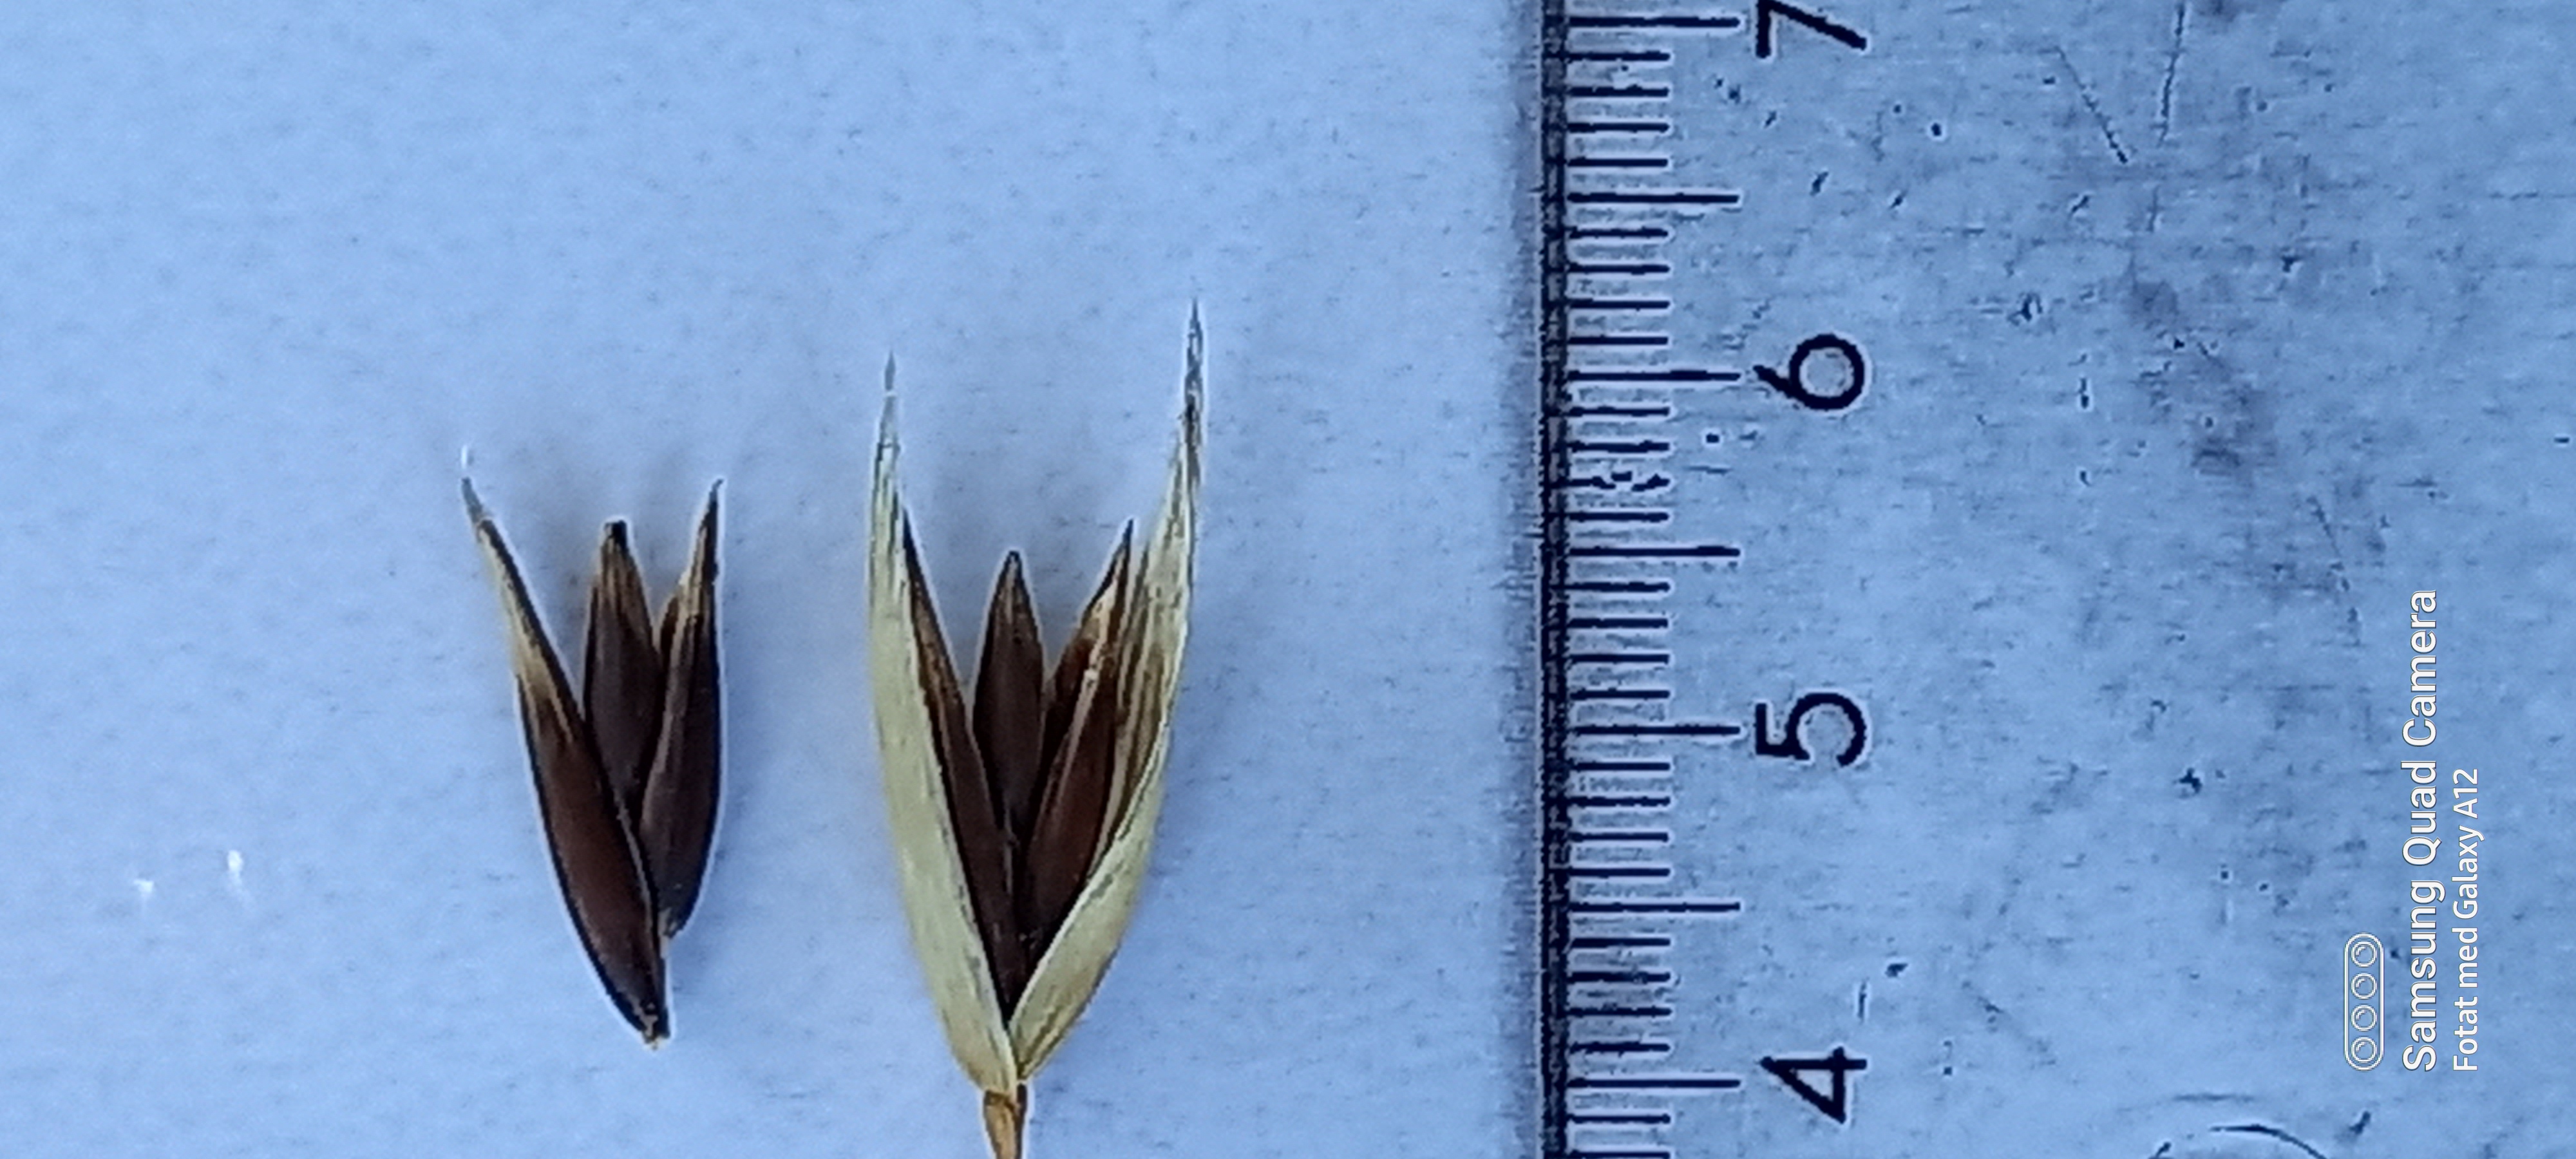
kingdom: Plantae
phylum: Tracheophyta
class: Liliopsida
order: Poales
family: Poaceae
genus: Avena
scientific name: Avena sativa
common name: Oat
